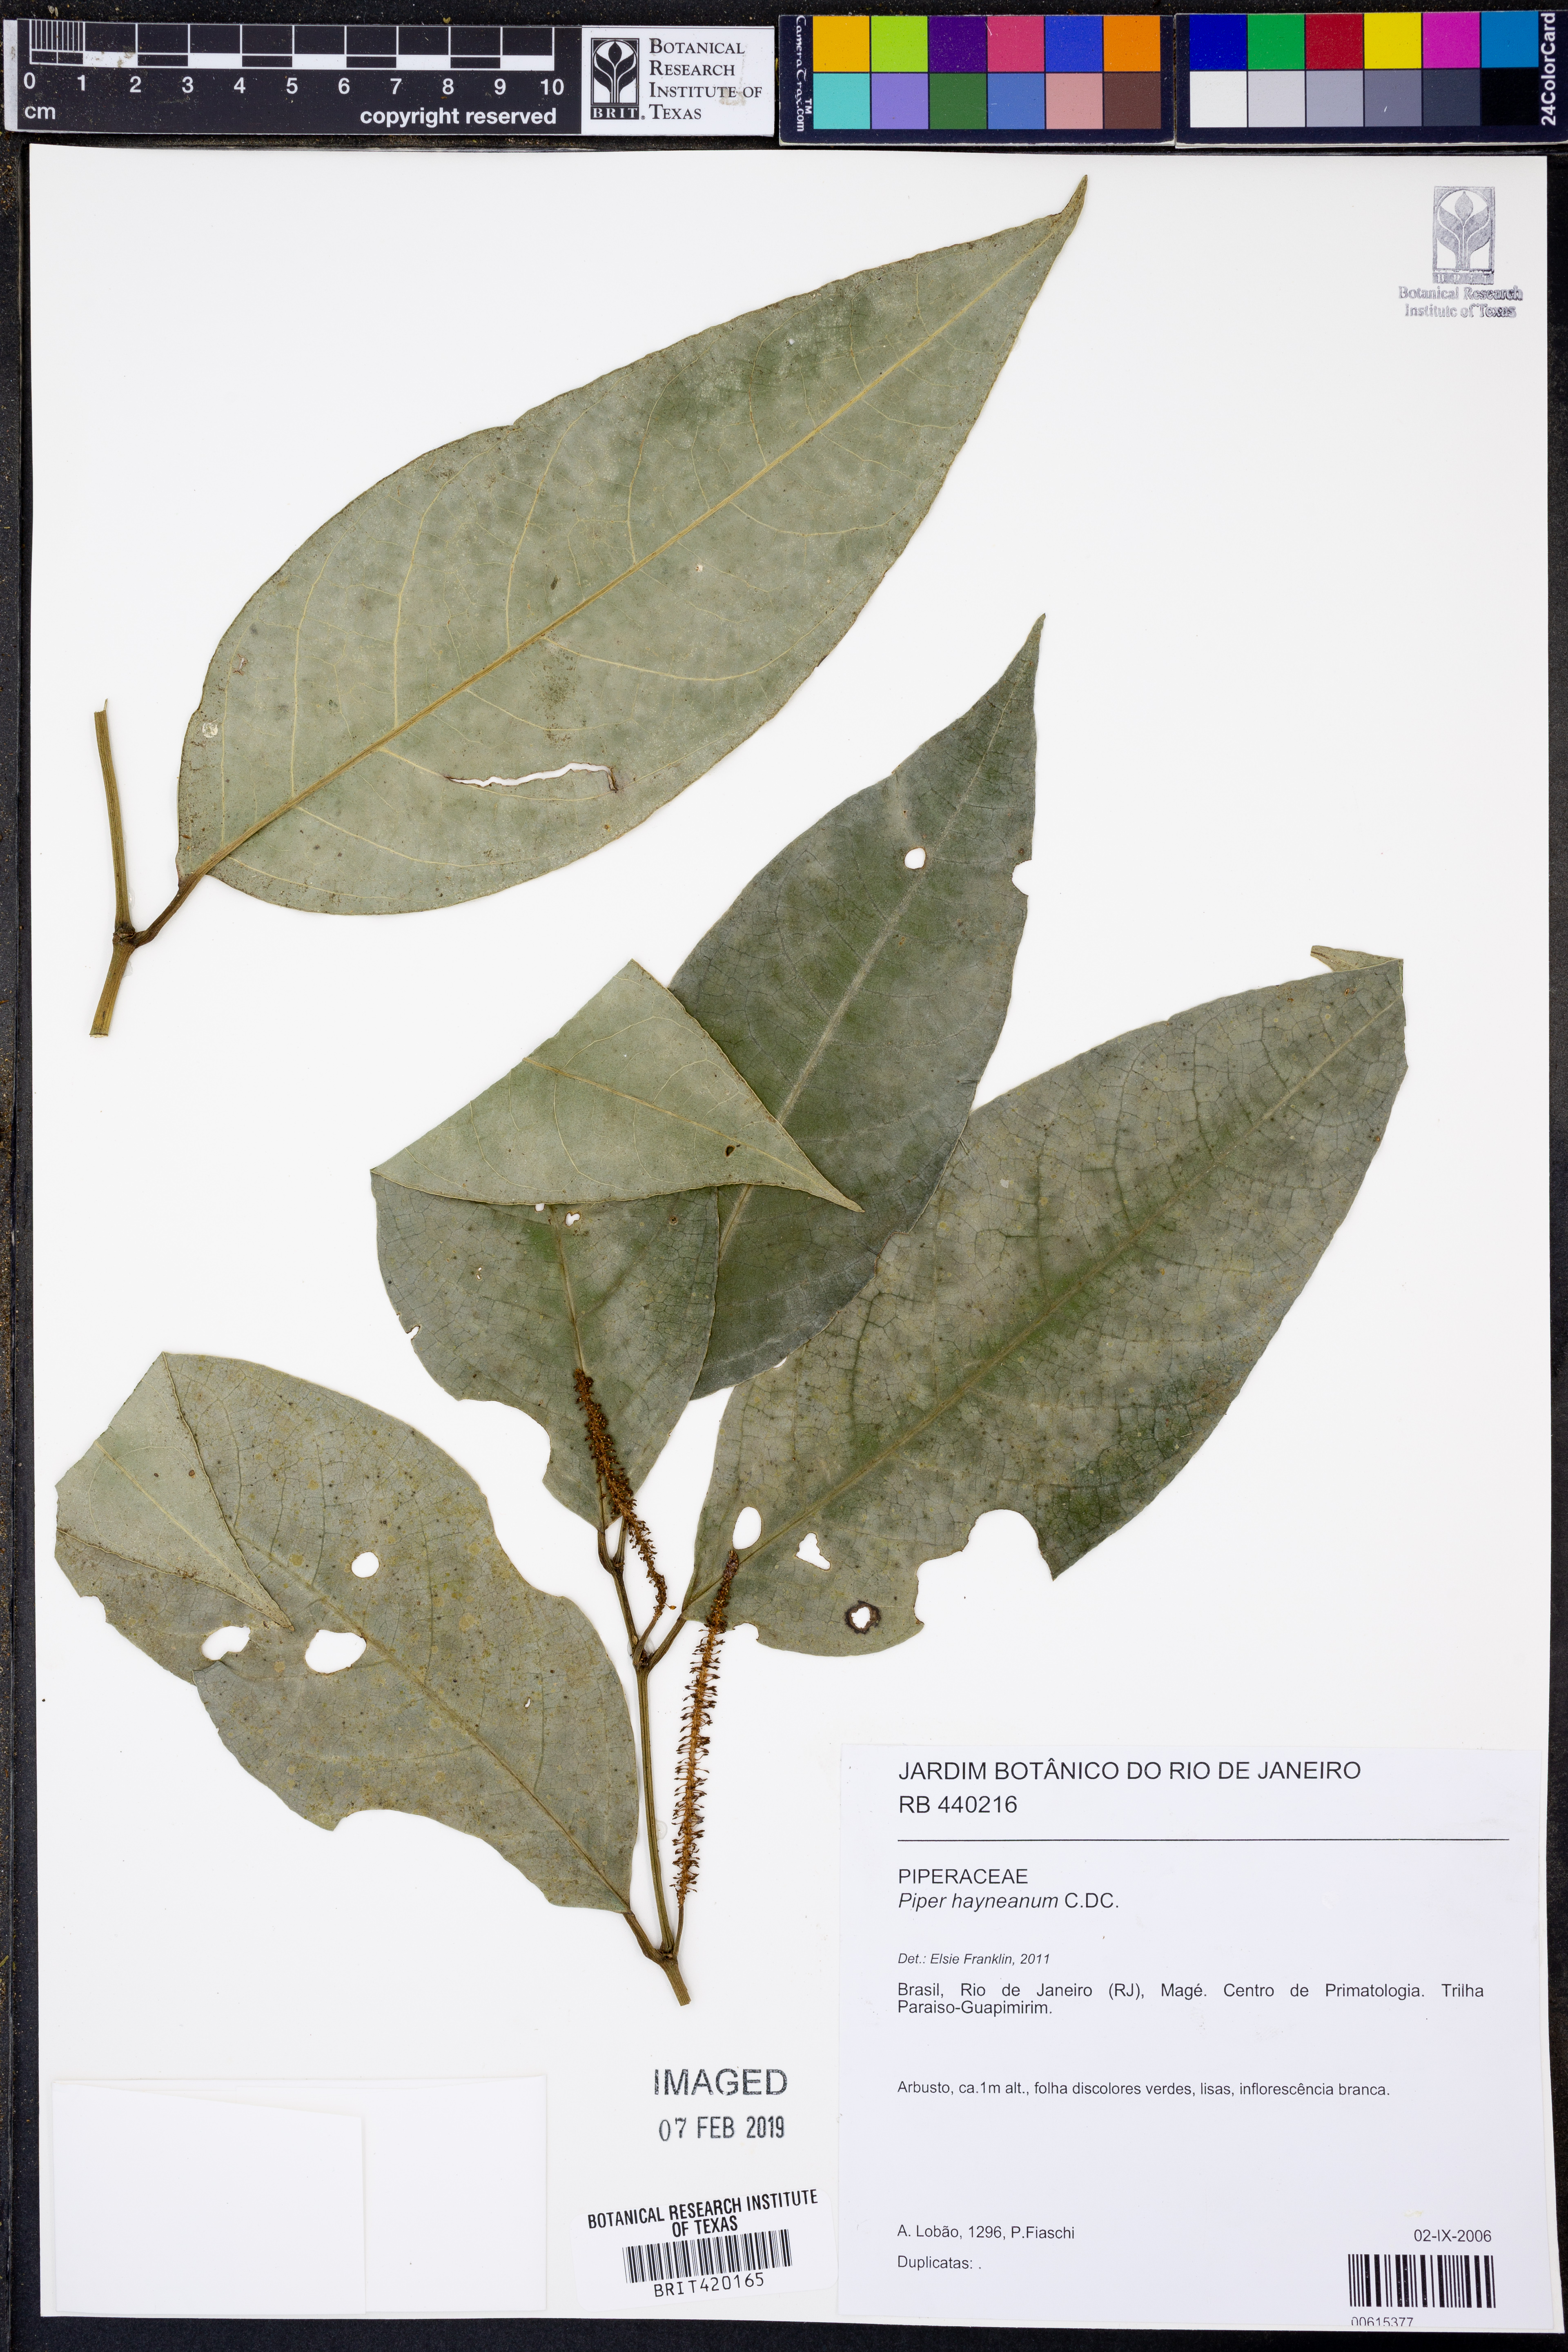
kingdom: Plantae
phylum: Tracheophyta
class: Magnoliopsida
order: Piperales
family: Piperaceae
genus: Piper
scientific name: Piper hayneanum
